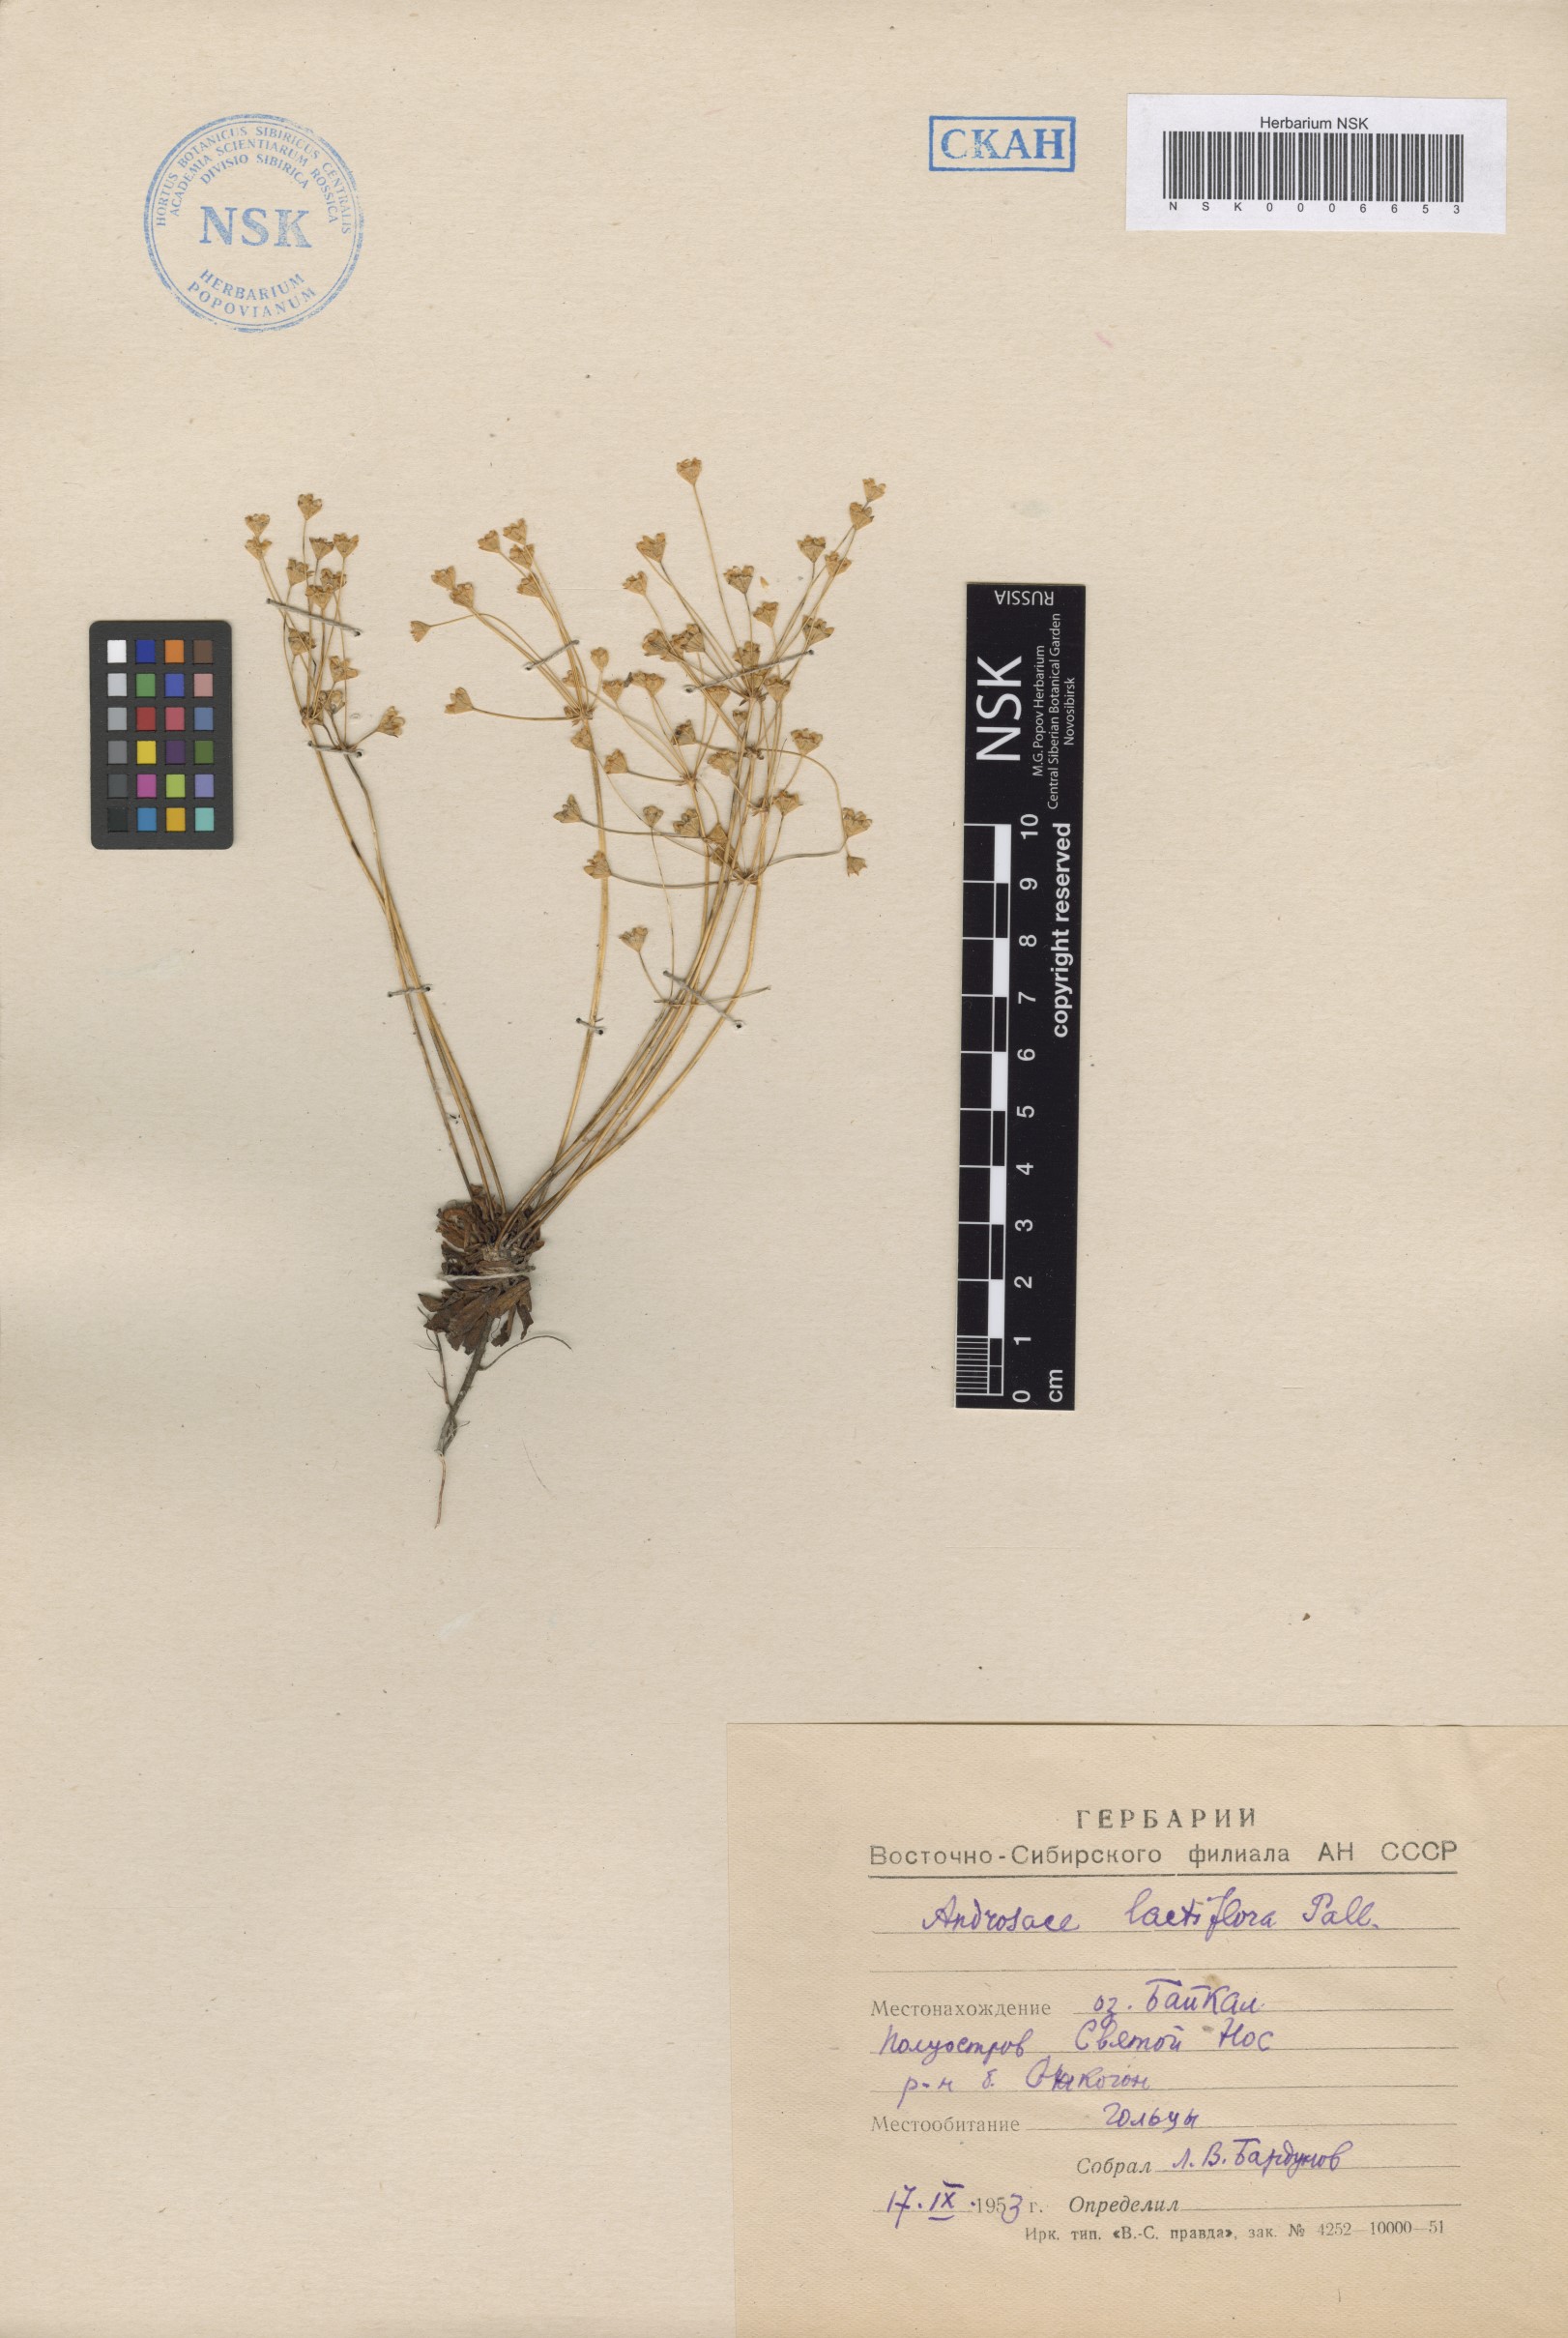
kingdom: Plantae
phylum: Tracheophyta
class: Magnoliopsida
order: Ericales
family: Primulaceae
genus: Androsace
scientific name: Androsace lactiflora
